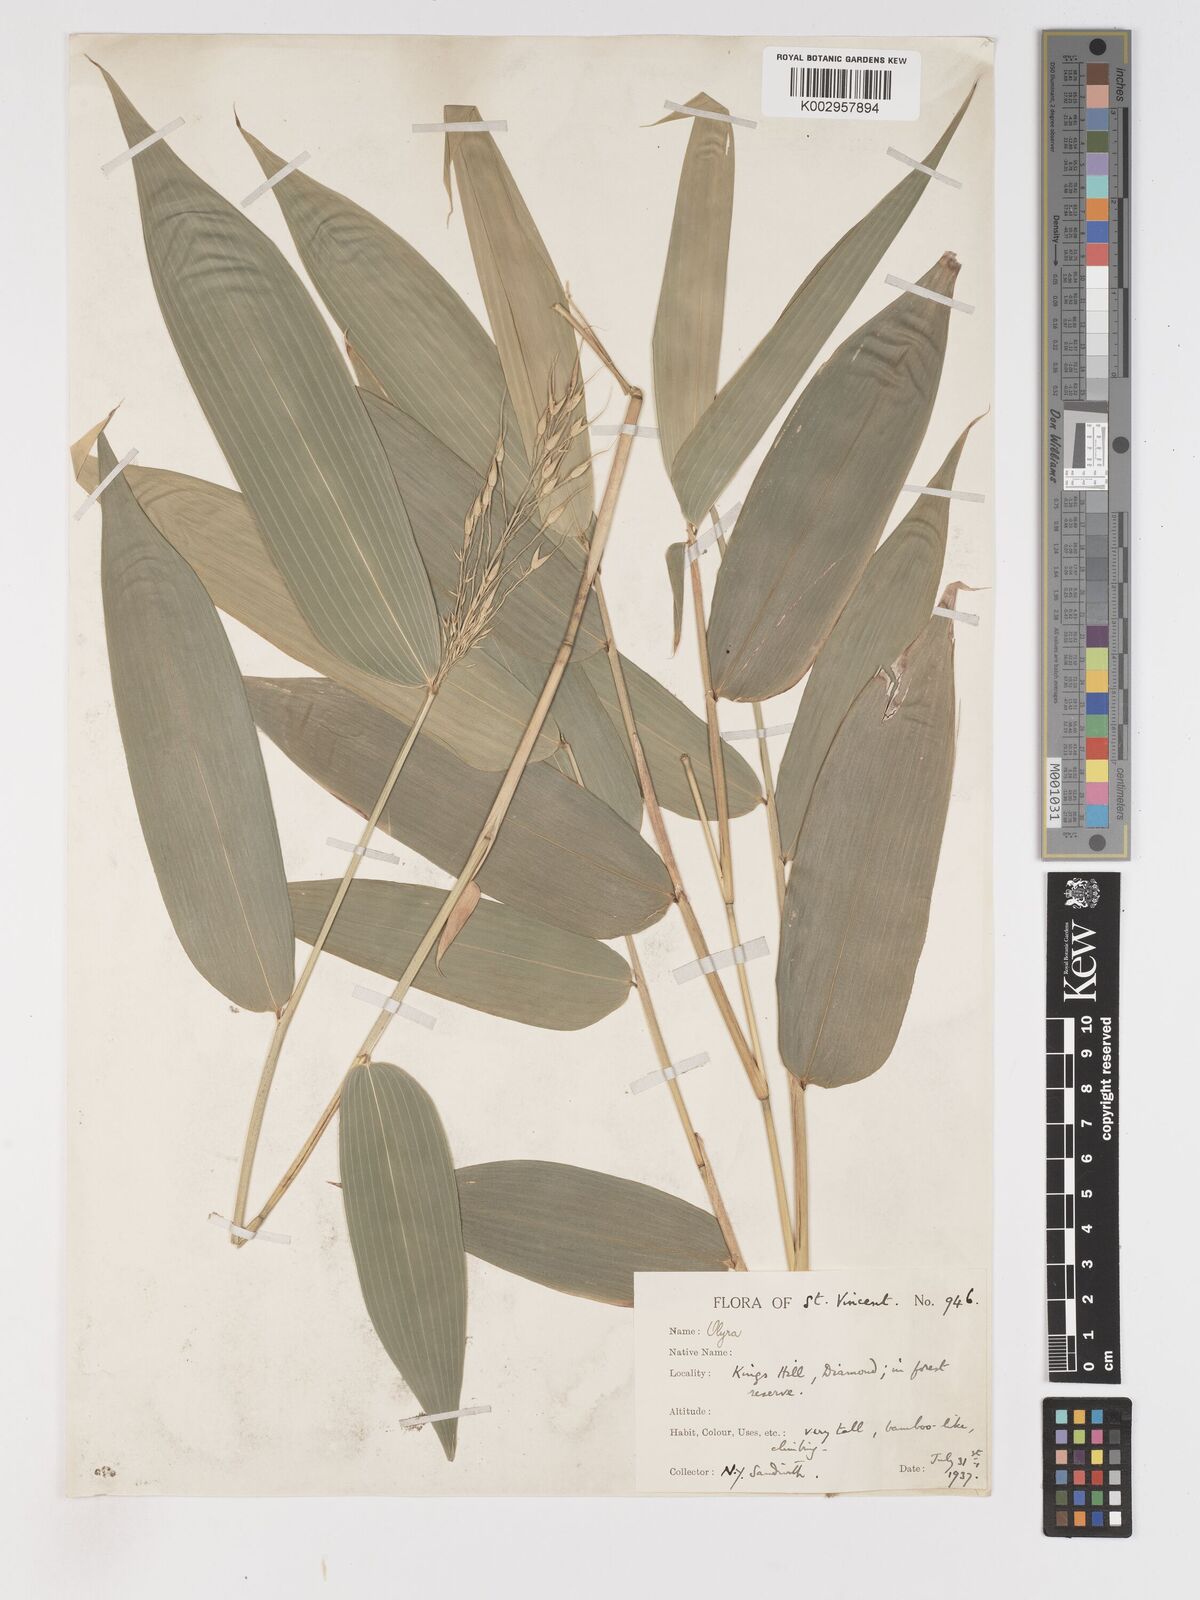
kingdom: Plantae
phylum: Tracheophyta
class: Liliopsida
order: Poales
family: Poaceae
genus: Olyra
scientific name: Olyra latifolia
